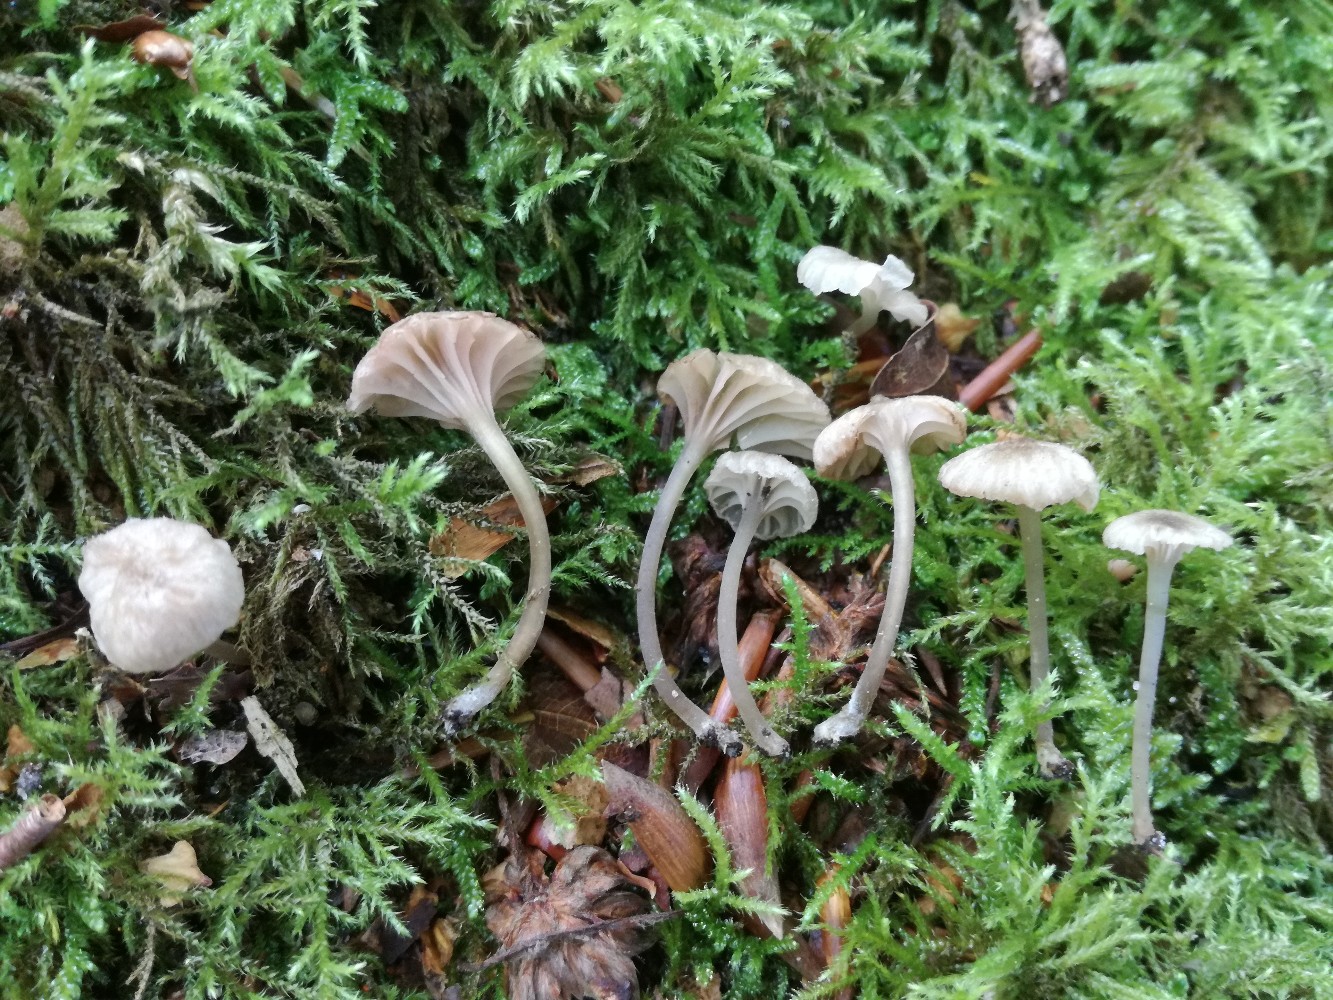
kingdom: Fungi
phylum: Basidiomycota
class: Agaricomycetes
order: Agaricales
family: Entolomataceae
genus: Entoloma
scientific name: Entoloma rhodocylix
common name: fjernbladet rødblad
